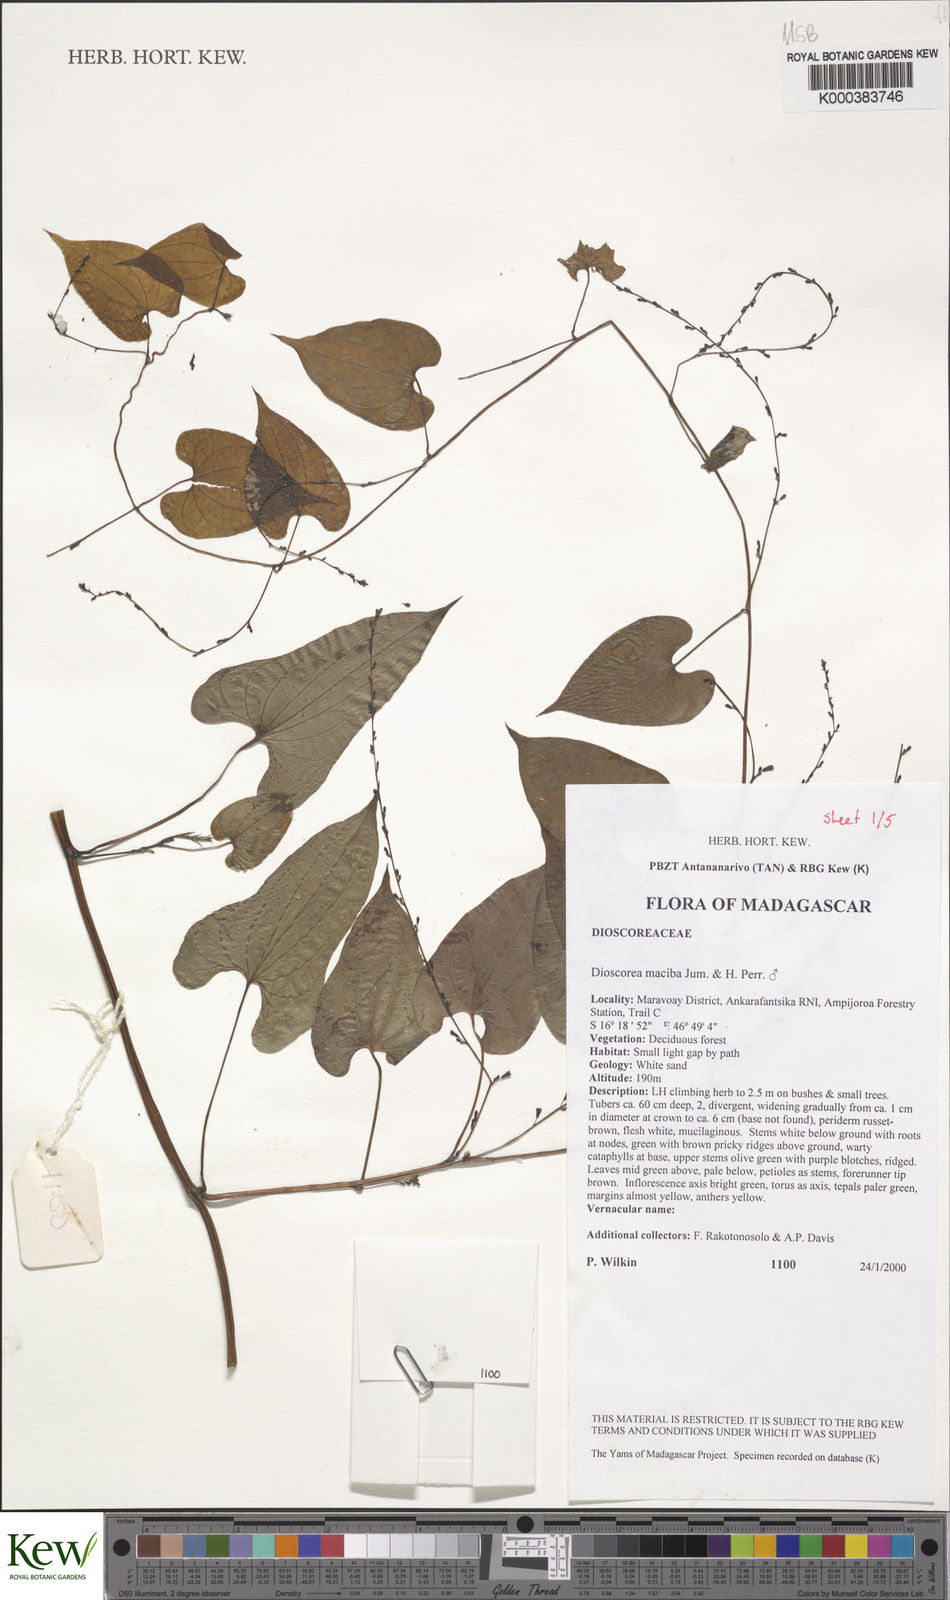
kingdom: Plantae
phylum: Tracheophyta
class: Liliopsida
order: Dioscoreales
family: Dioscoreaceae
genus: Dioscorea
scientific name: Dioscorea
